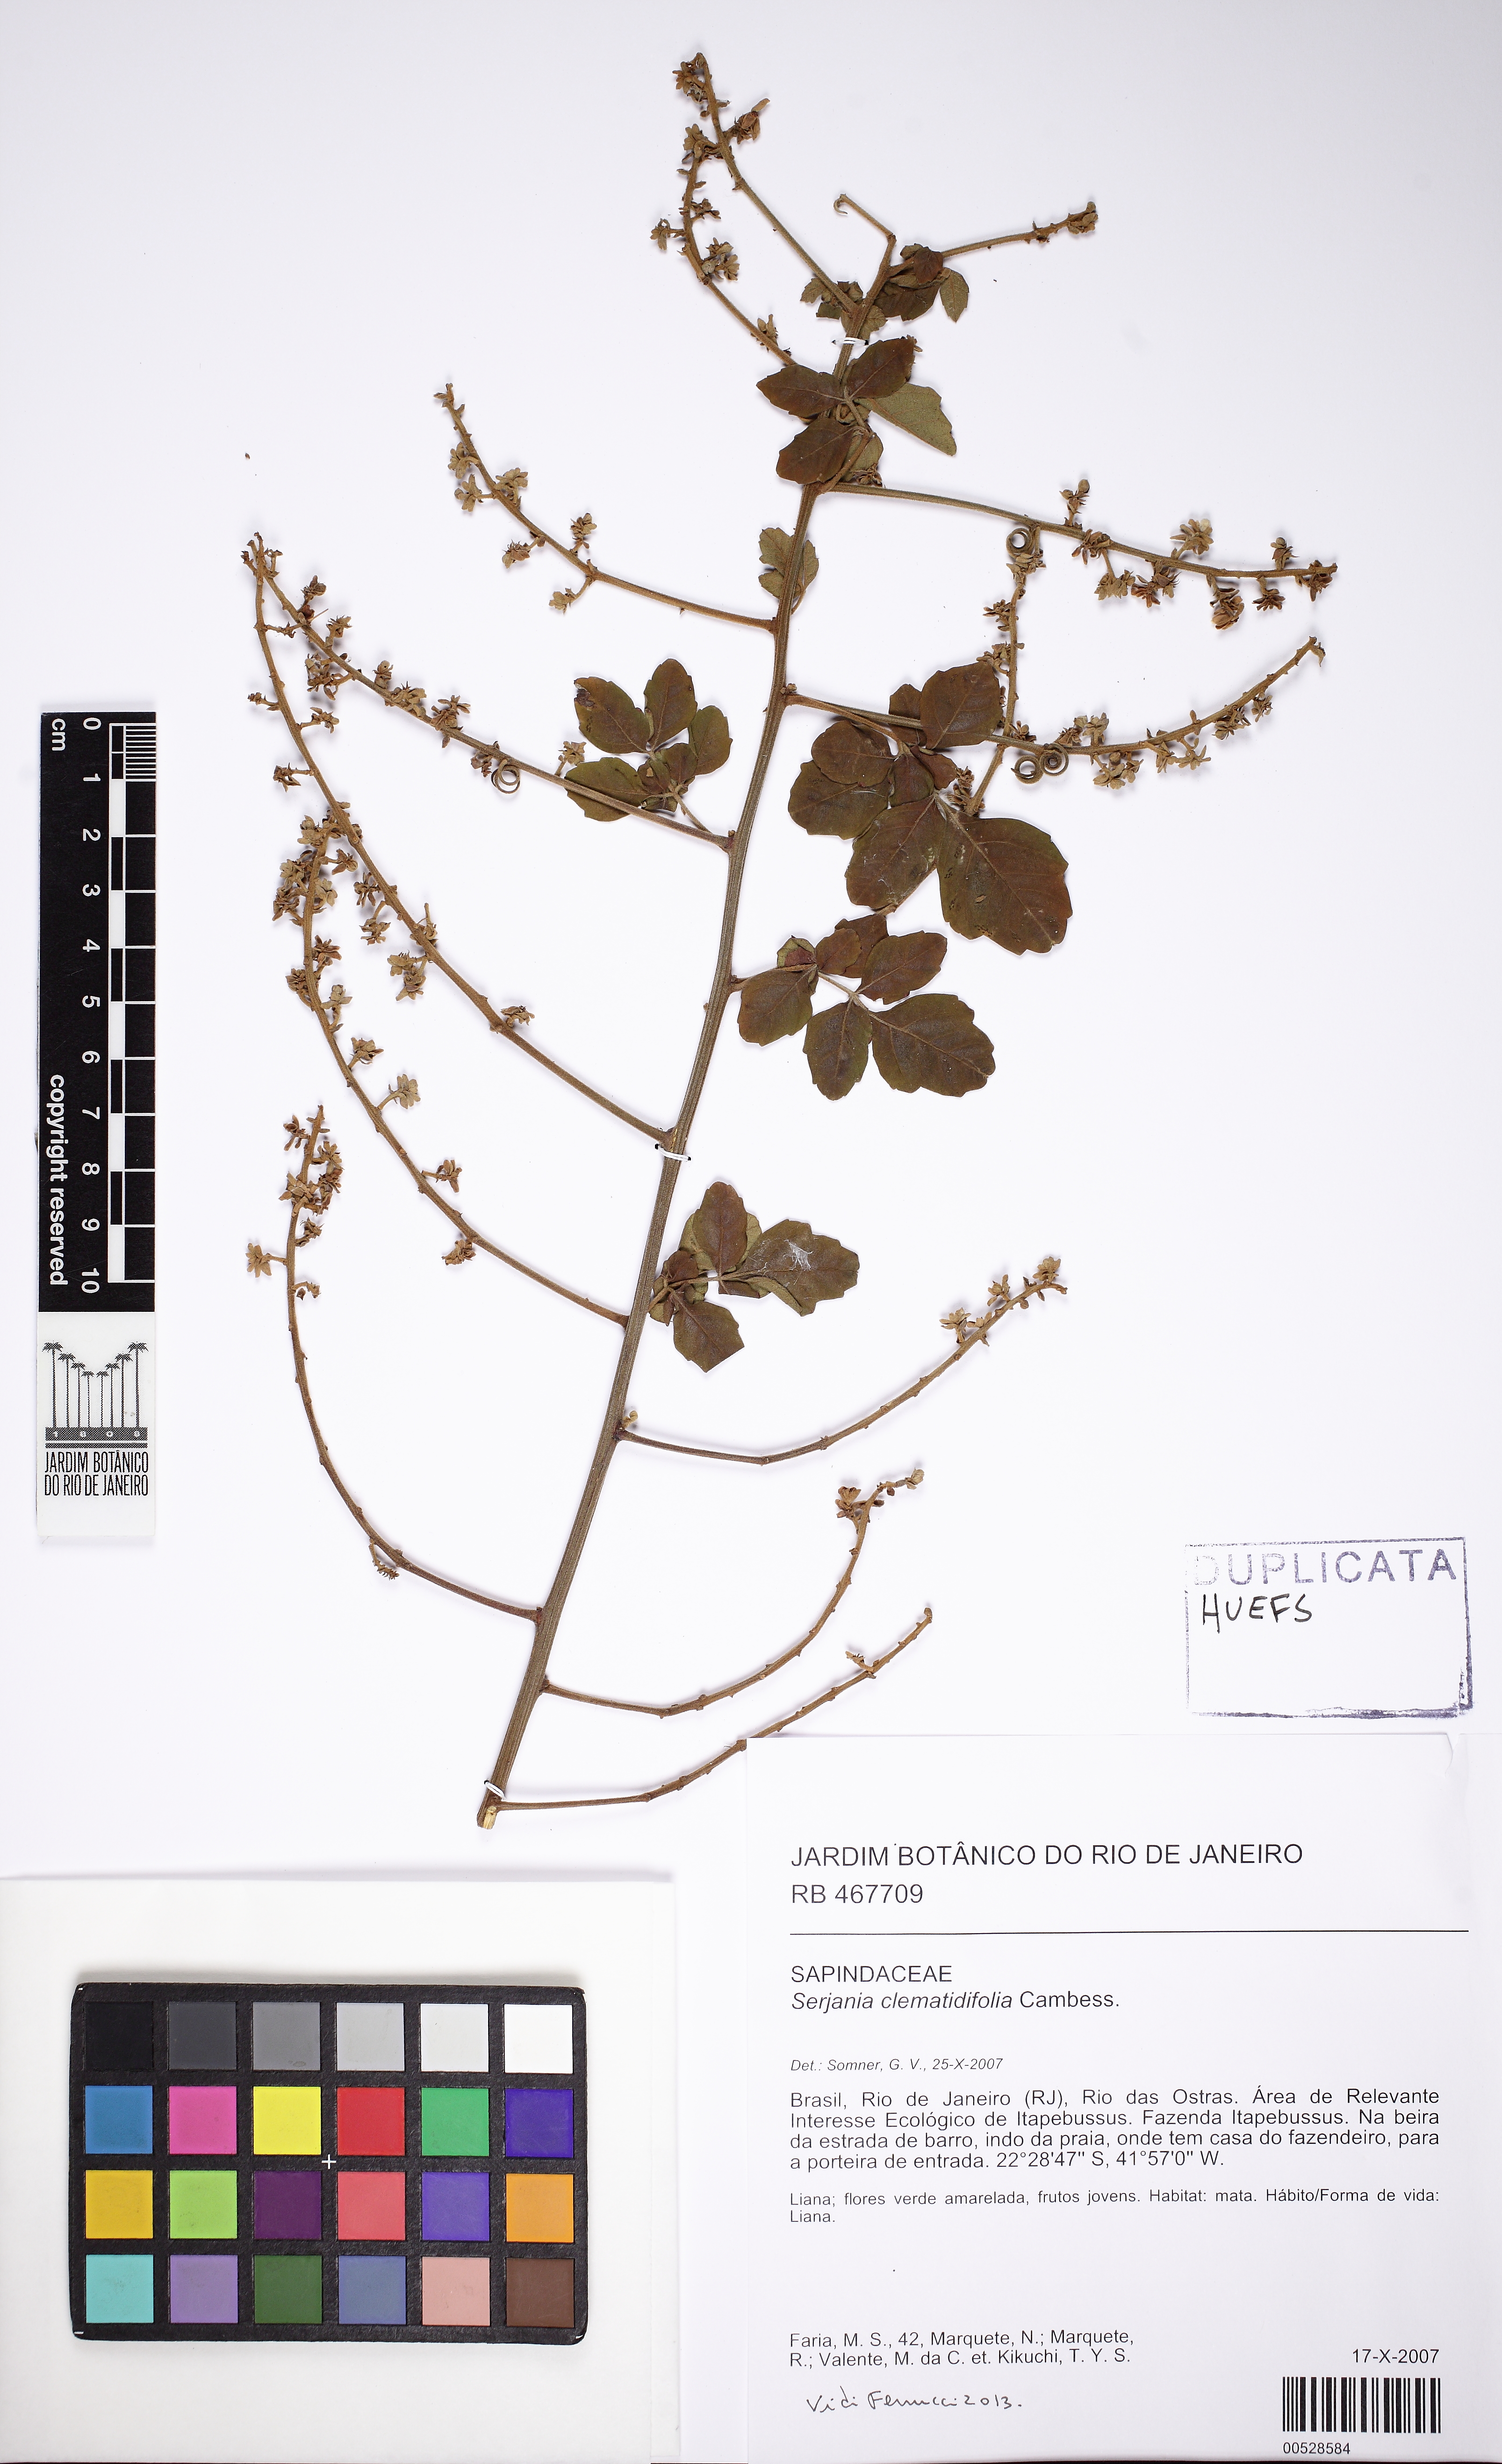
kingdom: Plantae
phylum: Tracheophyta
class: Magnoliopsida
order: Sapindales
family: Sapindaceae
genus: Serjania
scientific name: Serjania clematidifolia
